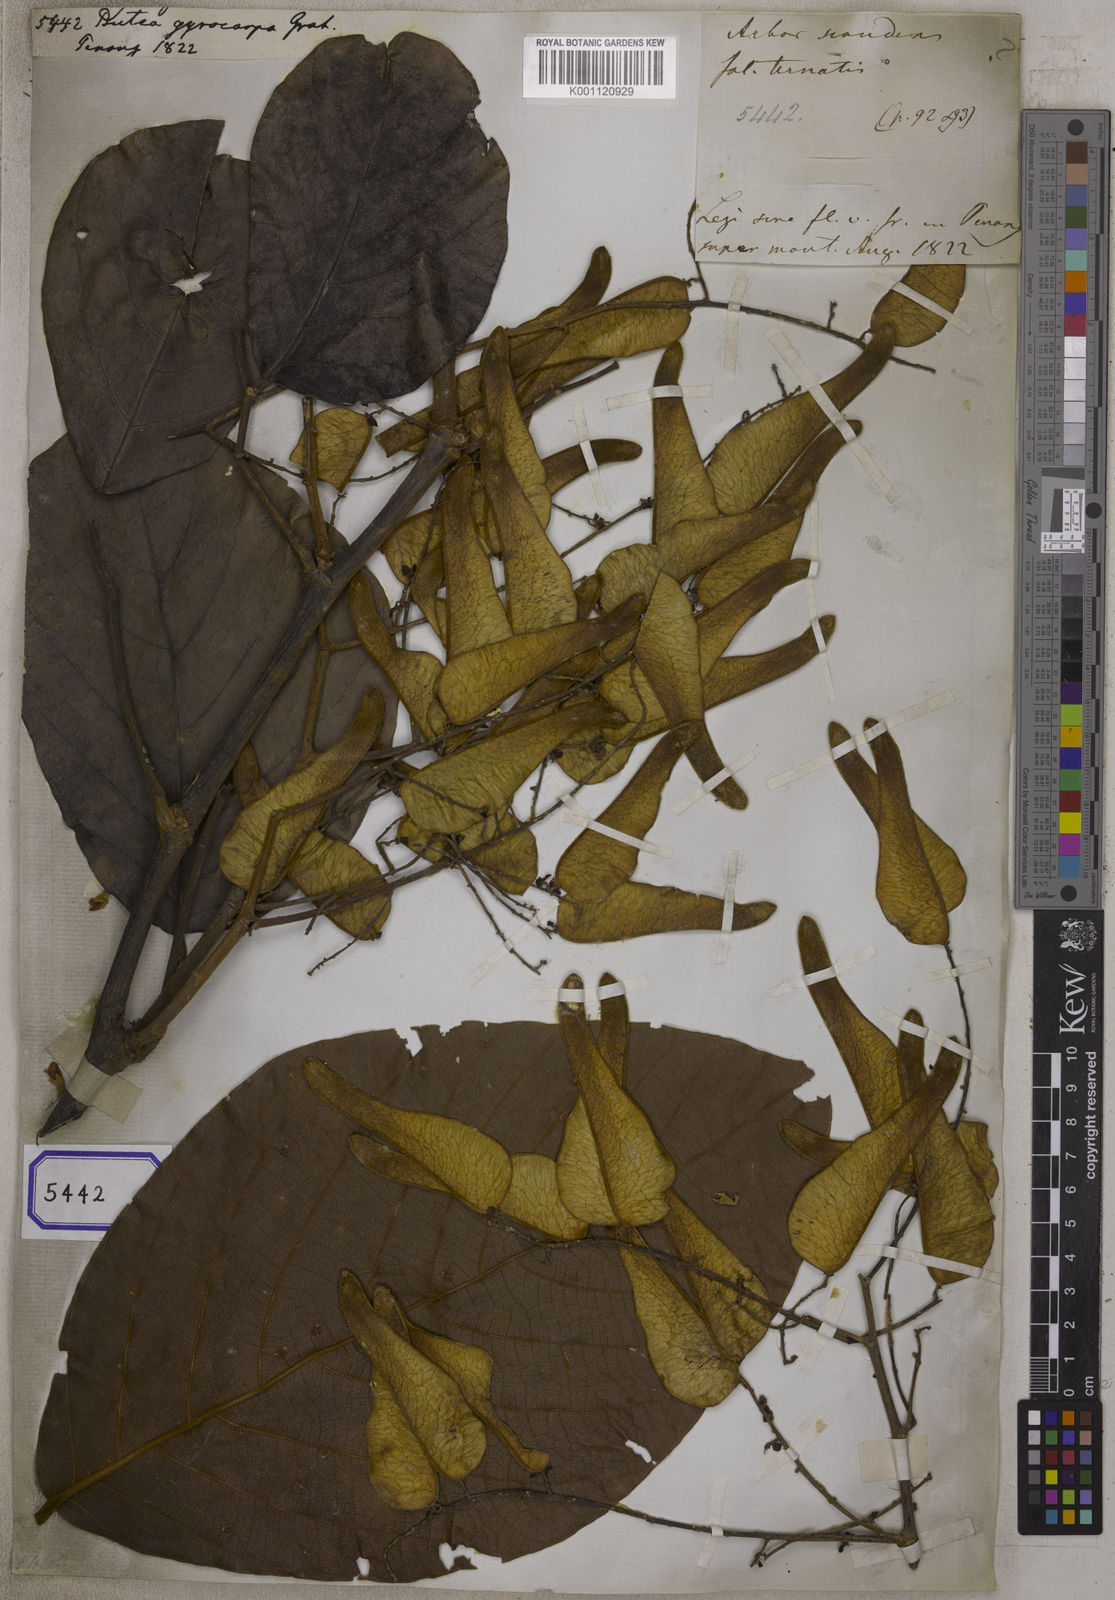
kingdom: Plantae
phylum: Tracheophyta
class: Magnoliopsida
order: Fabales
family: Fabaceae
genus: Butea
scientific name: Butea
